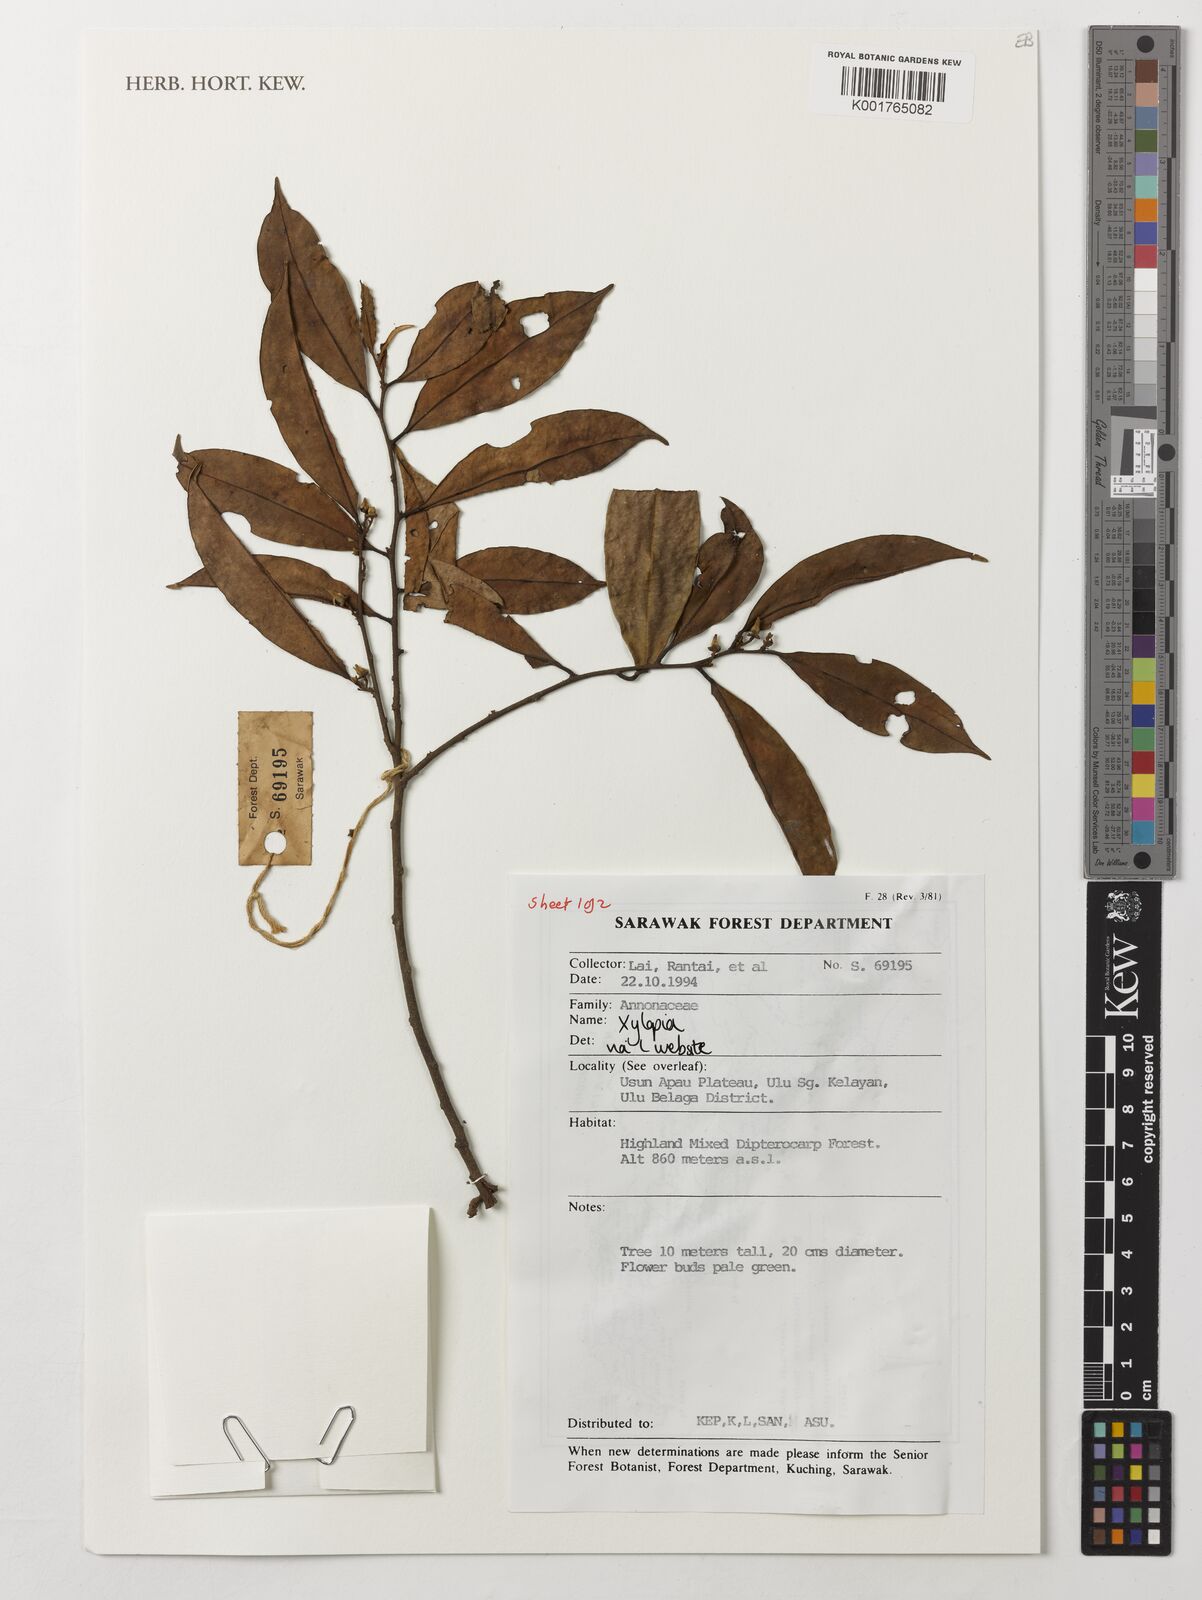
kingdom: Plantae
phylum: Tracheophyta
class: Magnoliopsida
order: Magnoliales
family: Annonaceae
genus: Xylopia
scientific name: Xylopia
